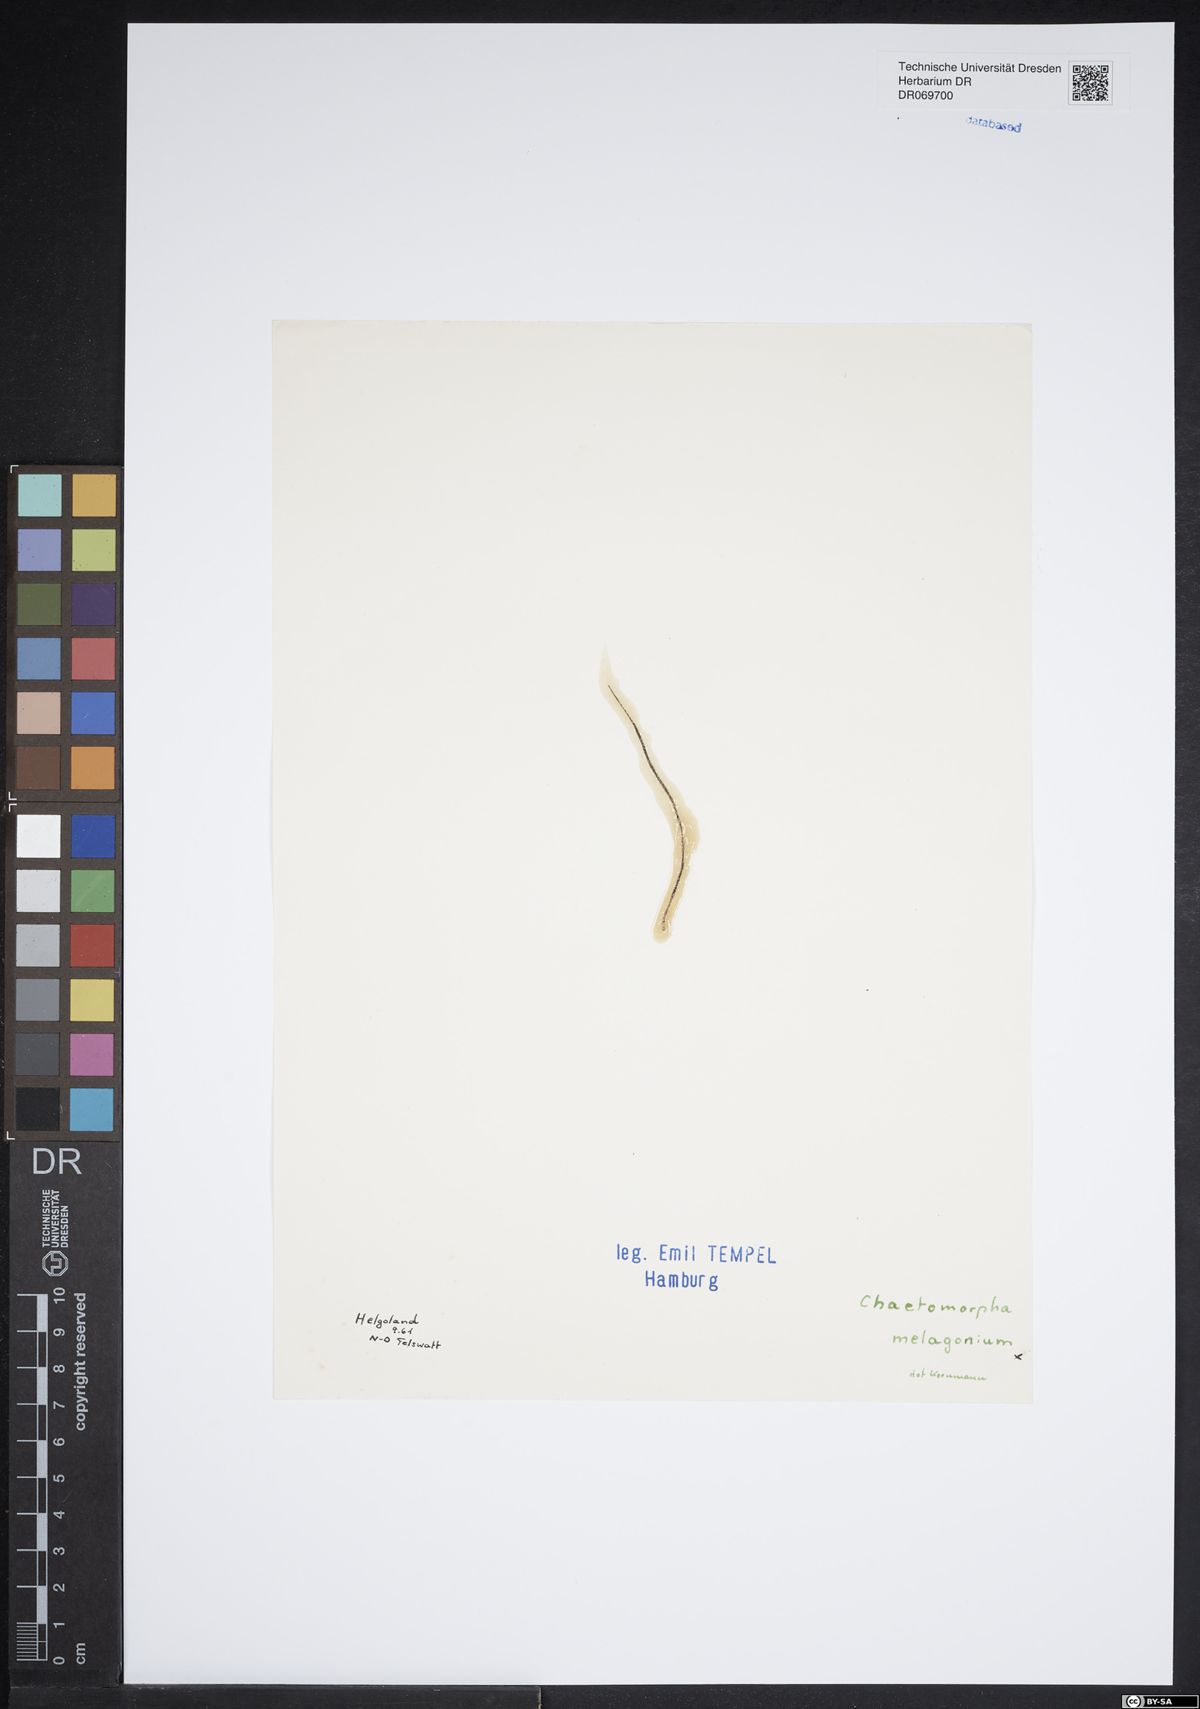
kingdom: Plantae
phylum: Chlorophyta
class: Ulvophyceae
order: Cladophorales
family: Cladophoraceae
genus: Chaetomorpha
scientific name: Chaetomorpha melagonium
